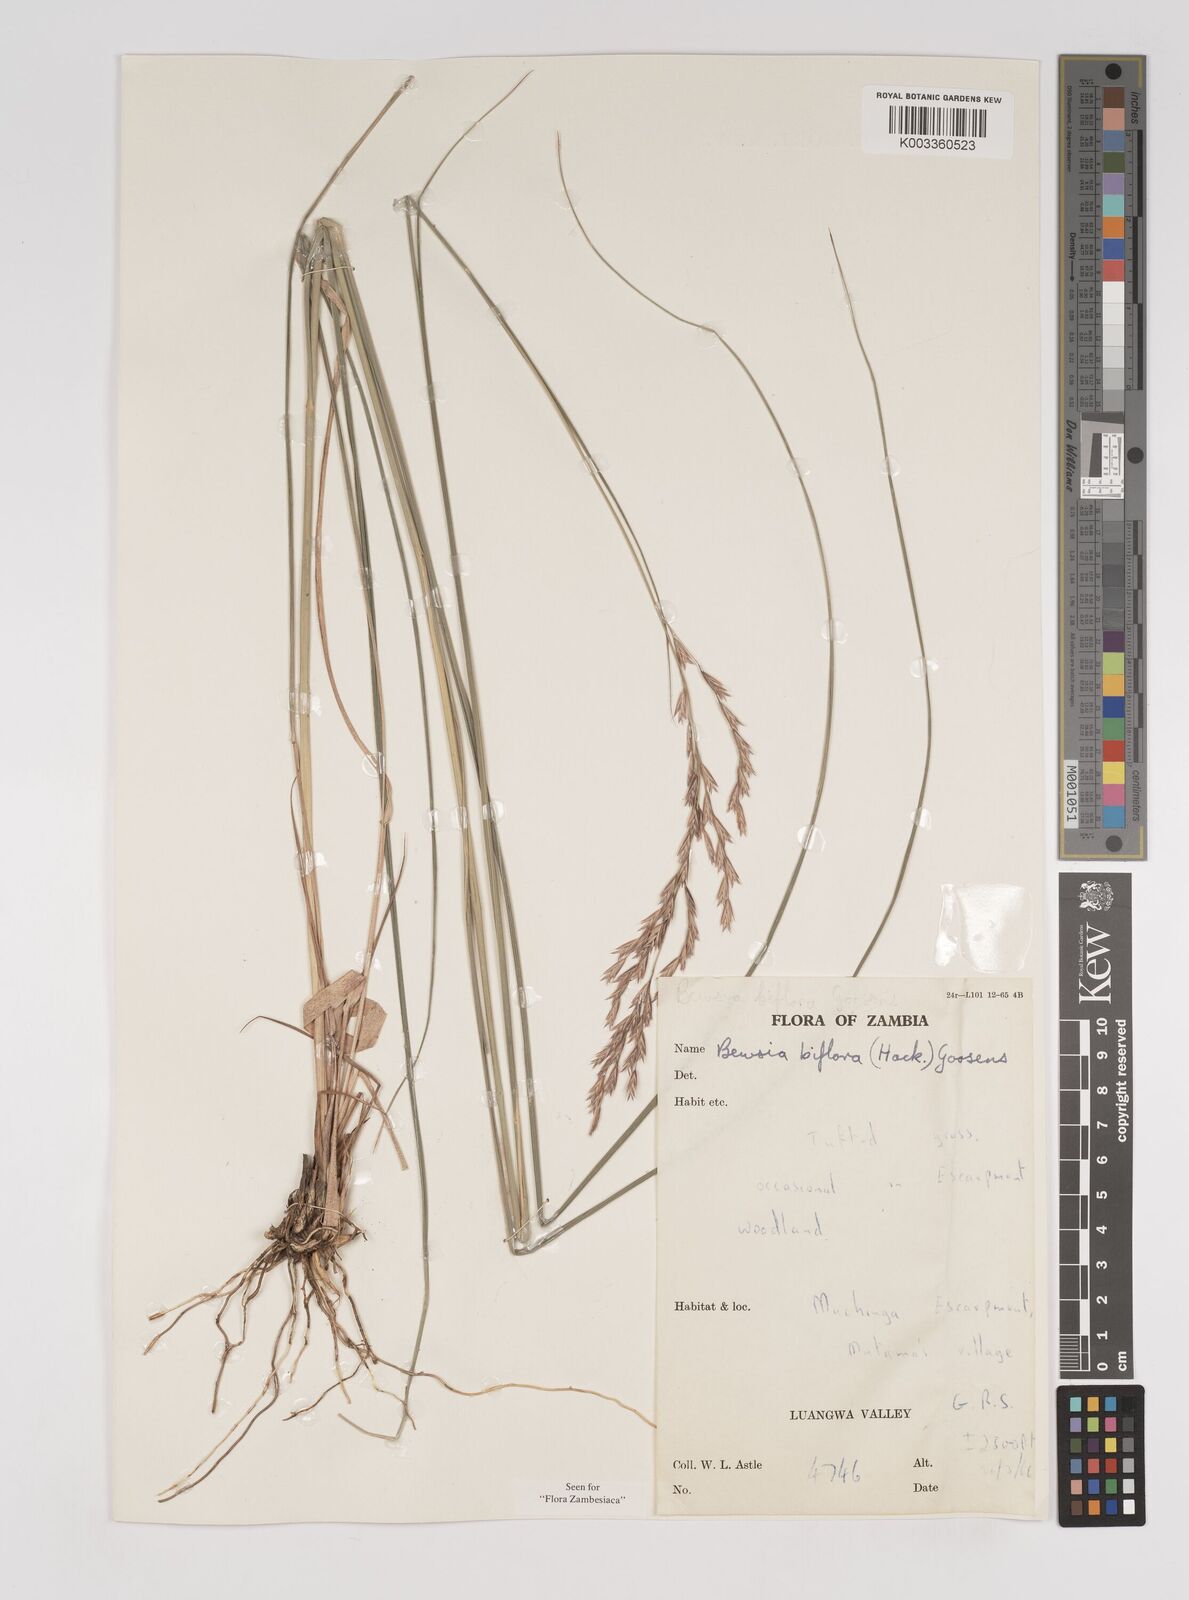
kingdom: Plantae
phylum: Tracheophyta
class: Liliopsida
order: Poales
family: Poaceae
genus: Bewsia
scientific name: Bewsia biflora
